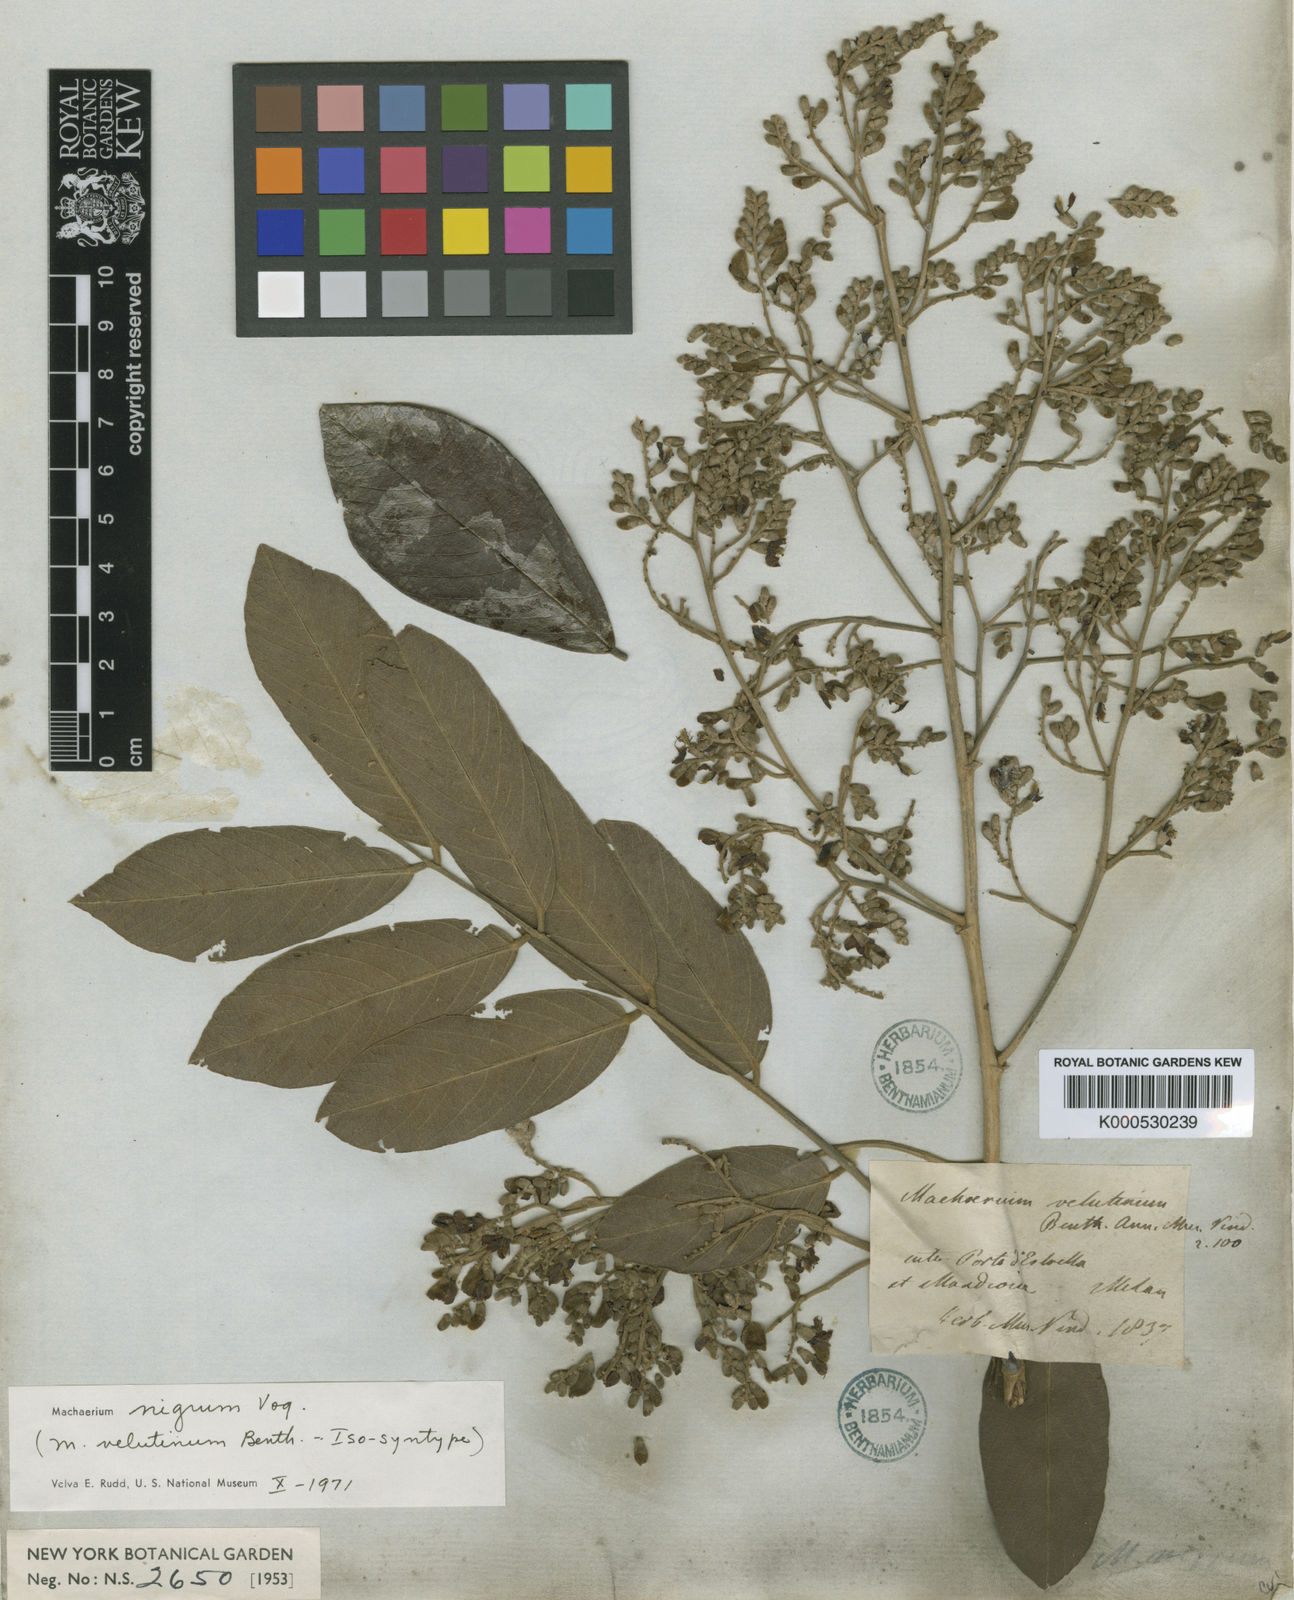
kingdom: Plantae
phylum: Tracheophyta
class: Magnoliopsida
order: Fabales
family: Fabaceae
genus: Machaerium
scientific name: Machaerium nigrum
